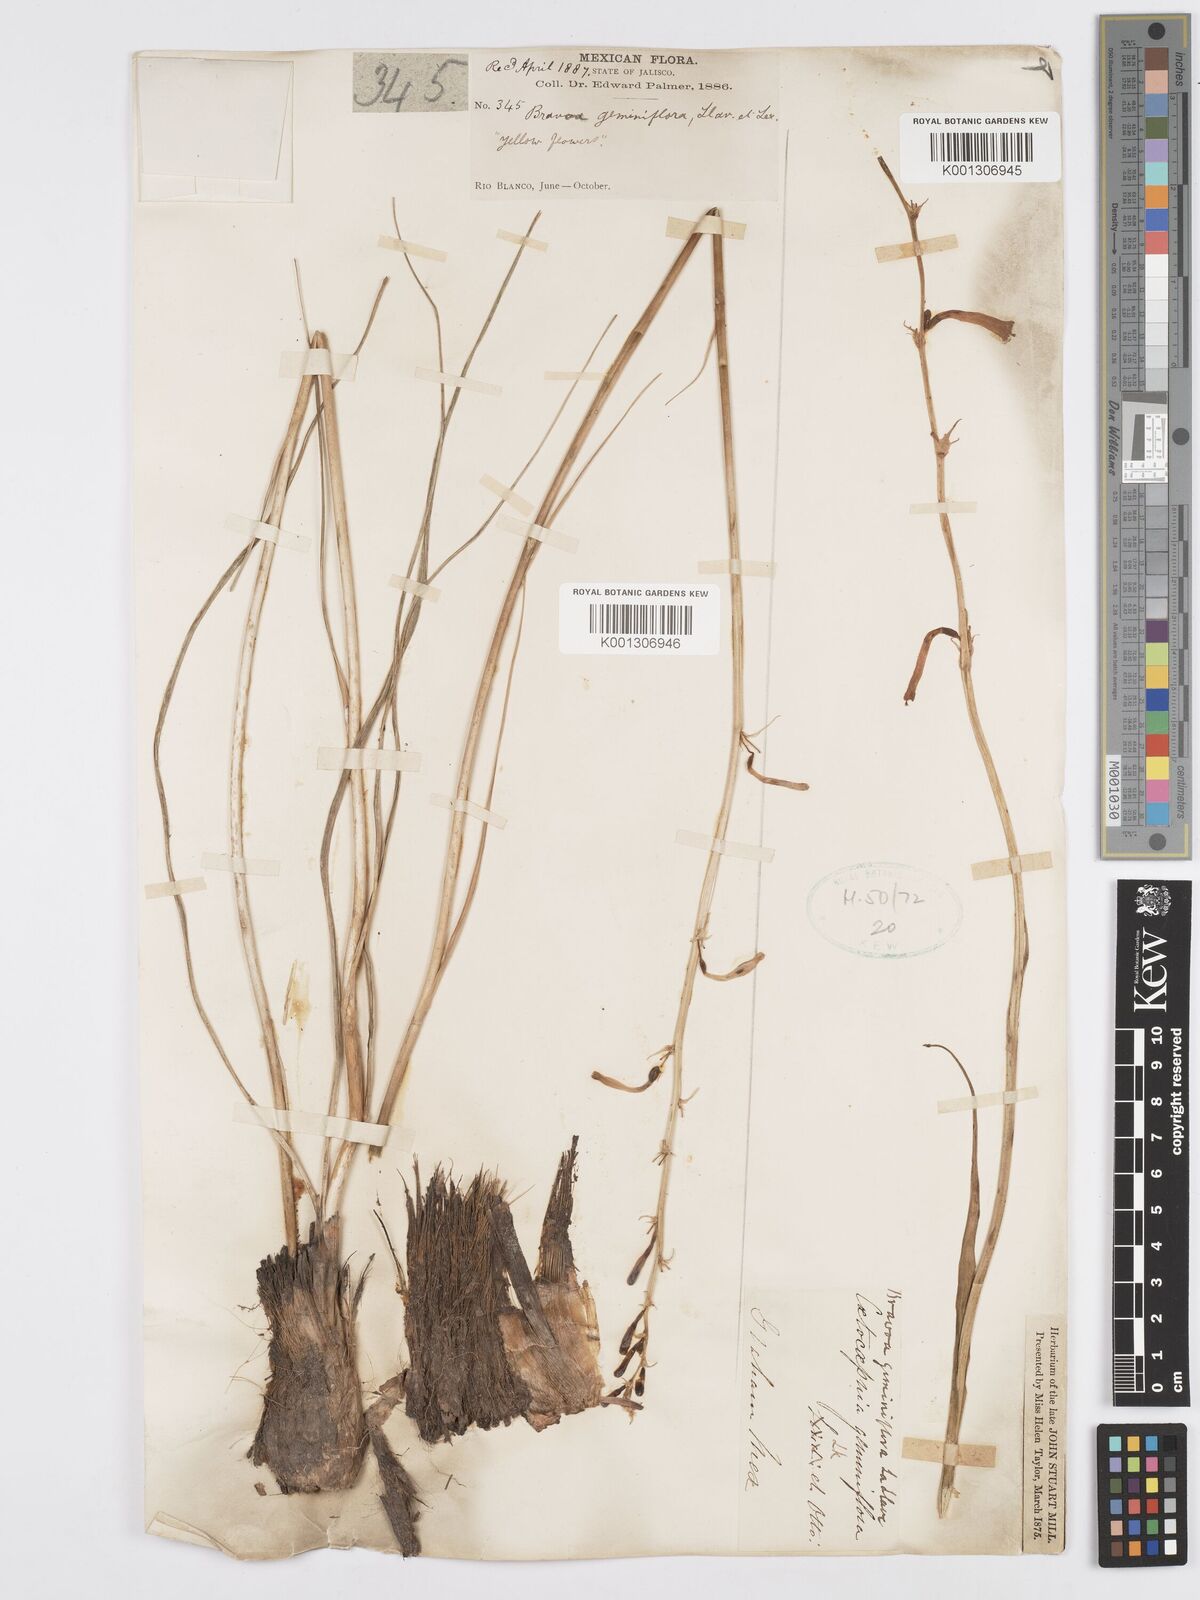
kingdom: Plantae
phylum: Tracheophyta
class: Liliopsida
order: Asparagales
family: Asparagaceae
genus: Agave
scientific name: Agave coetocapnia
